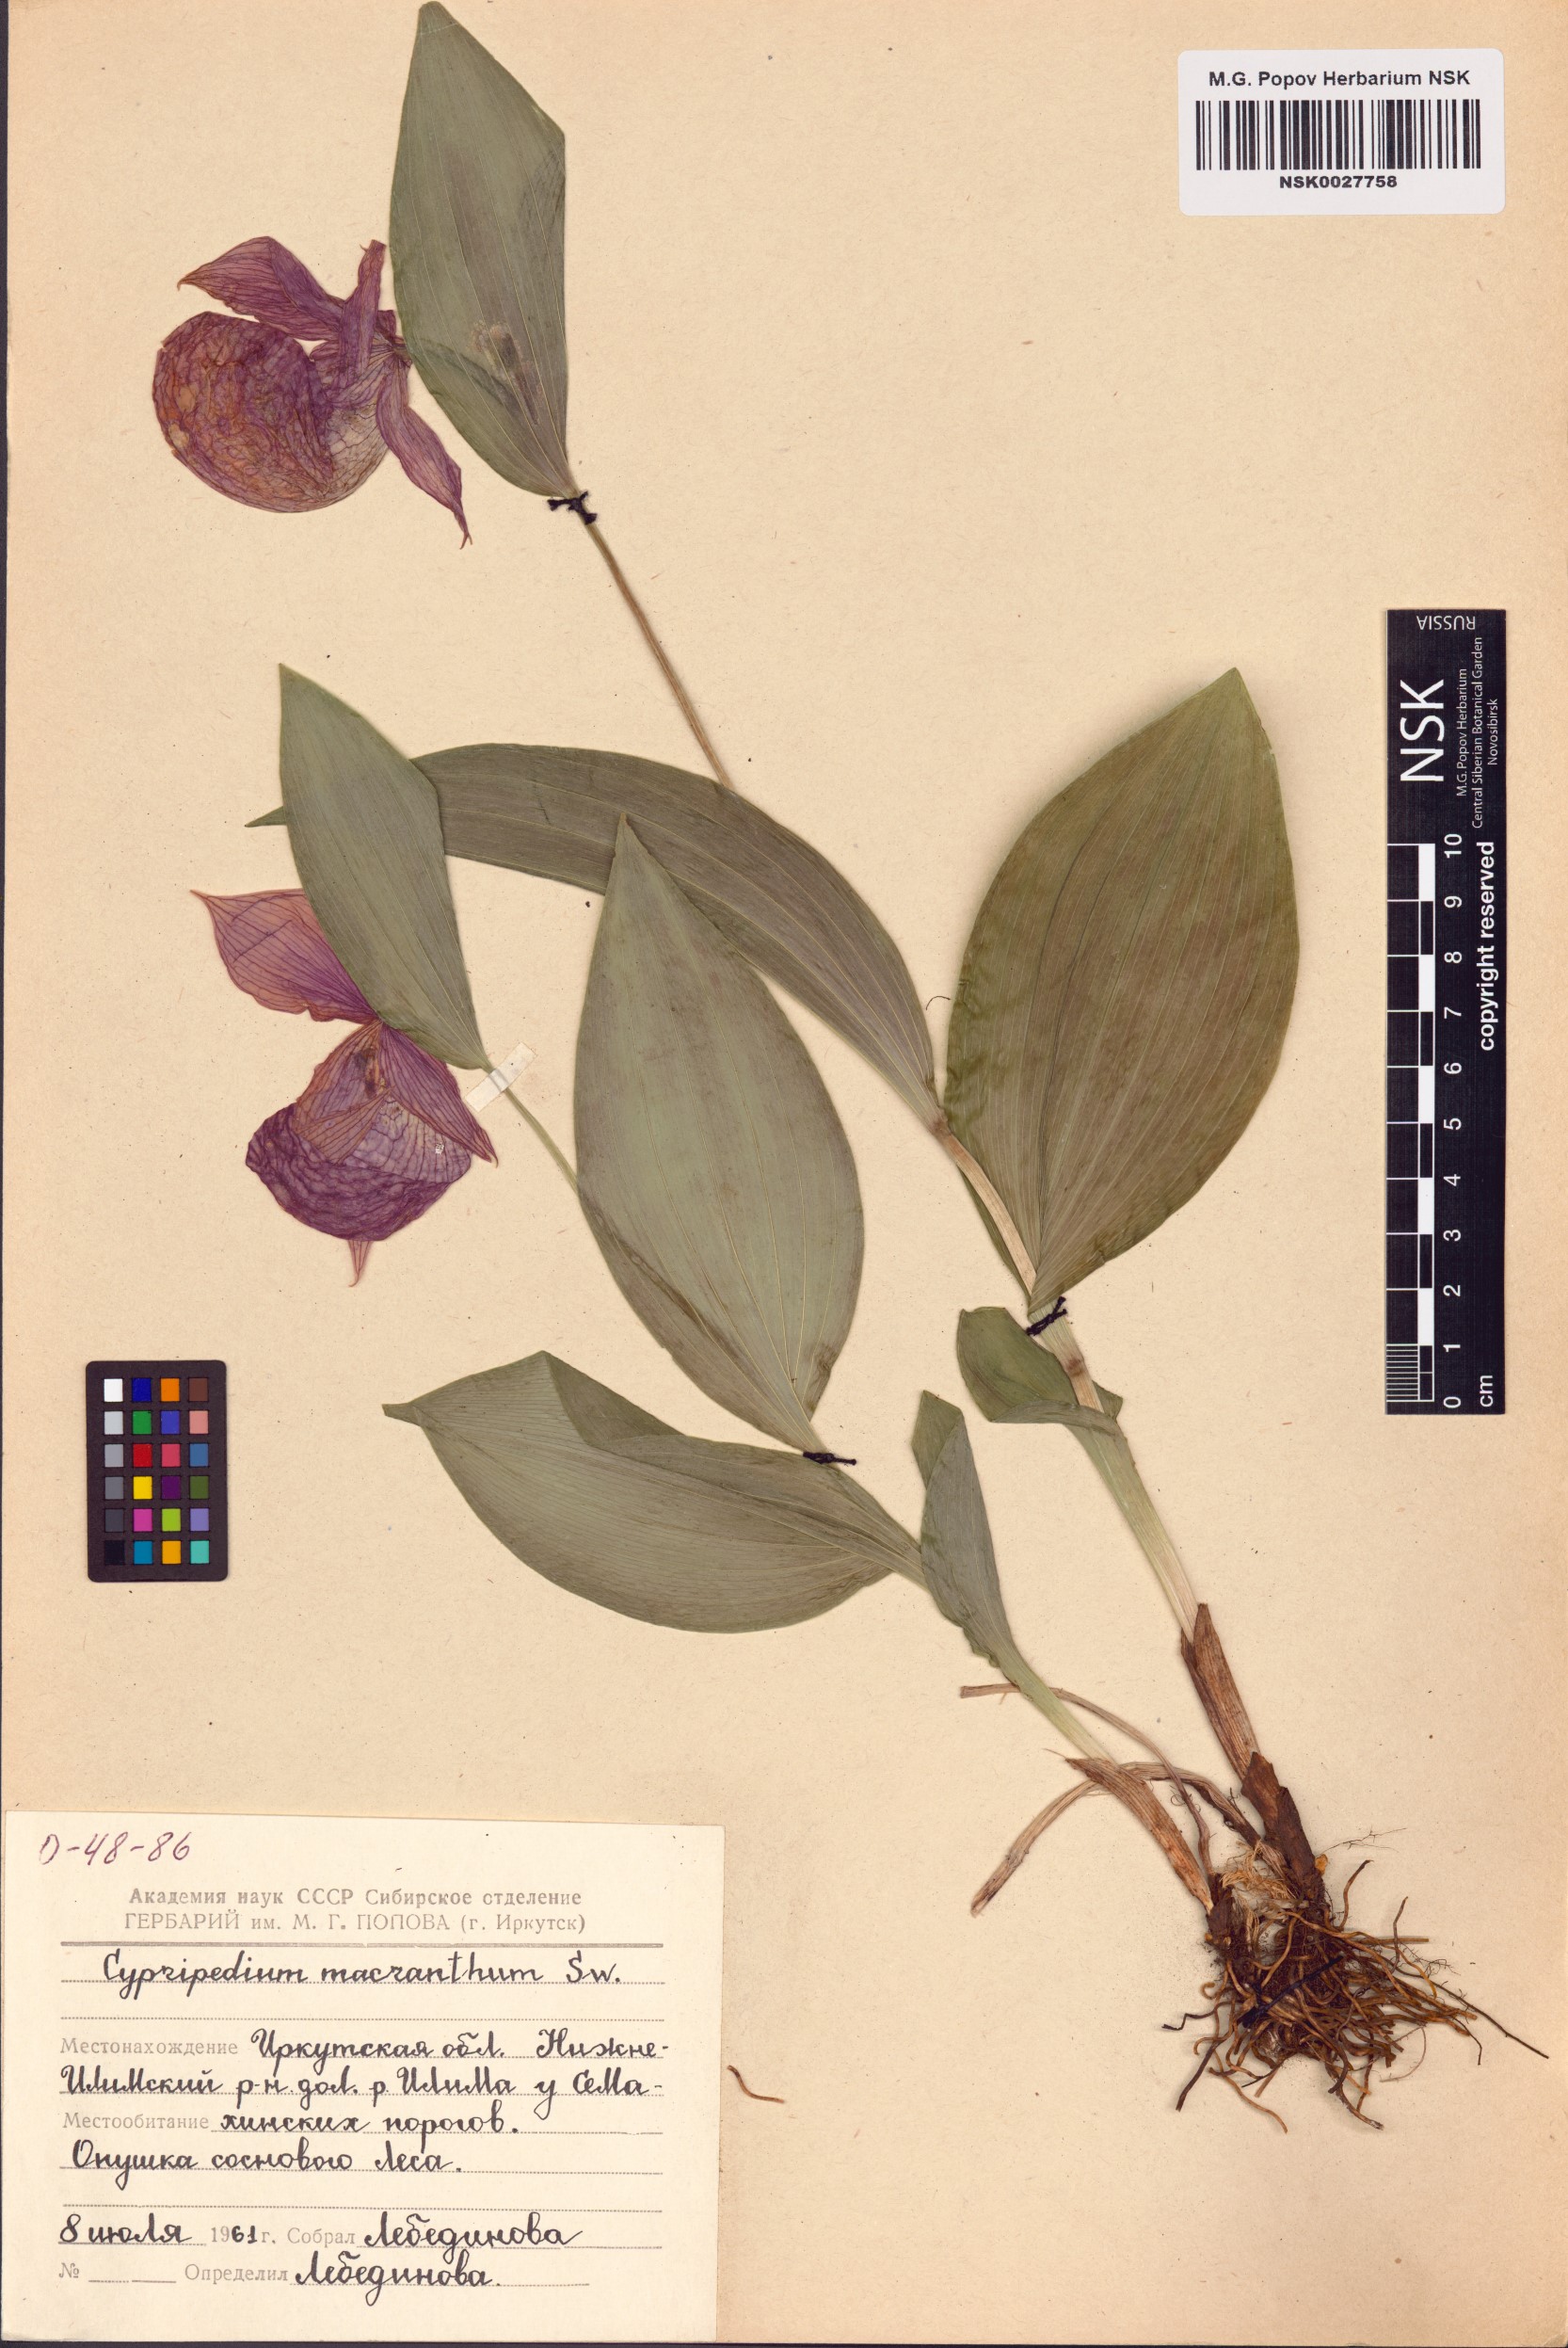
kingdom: Plantae
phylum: Tracheophyta
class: Liliopsida
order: Asparagales
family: Orchidaceae
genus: Cypripedium
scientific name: Cypripedium macranthos
